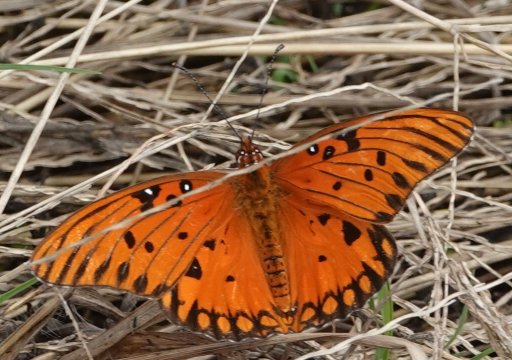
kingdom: Animalia
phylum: Arthropoda
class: Insecta
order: Lepidoptera
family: Nymphalidae
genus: Dione
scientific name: Dione vanillae
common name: Gulf Fritillary
